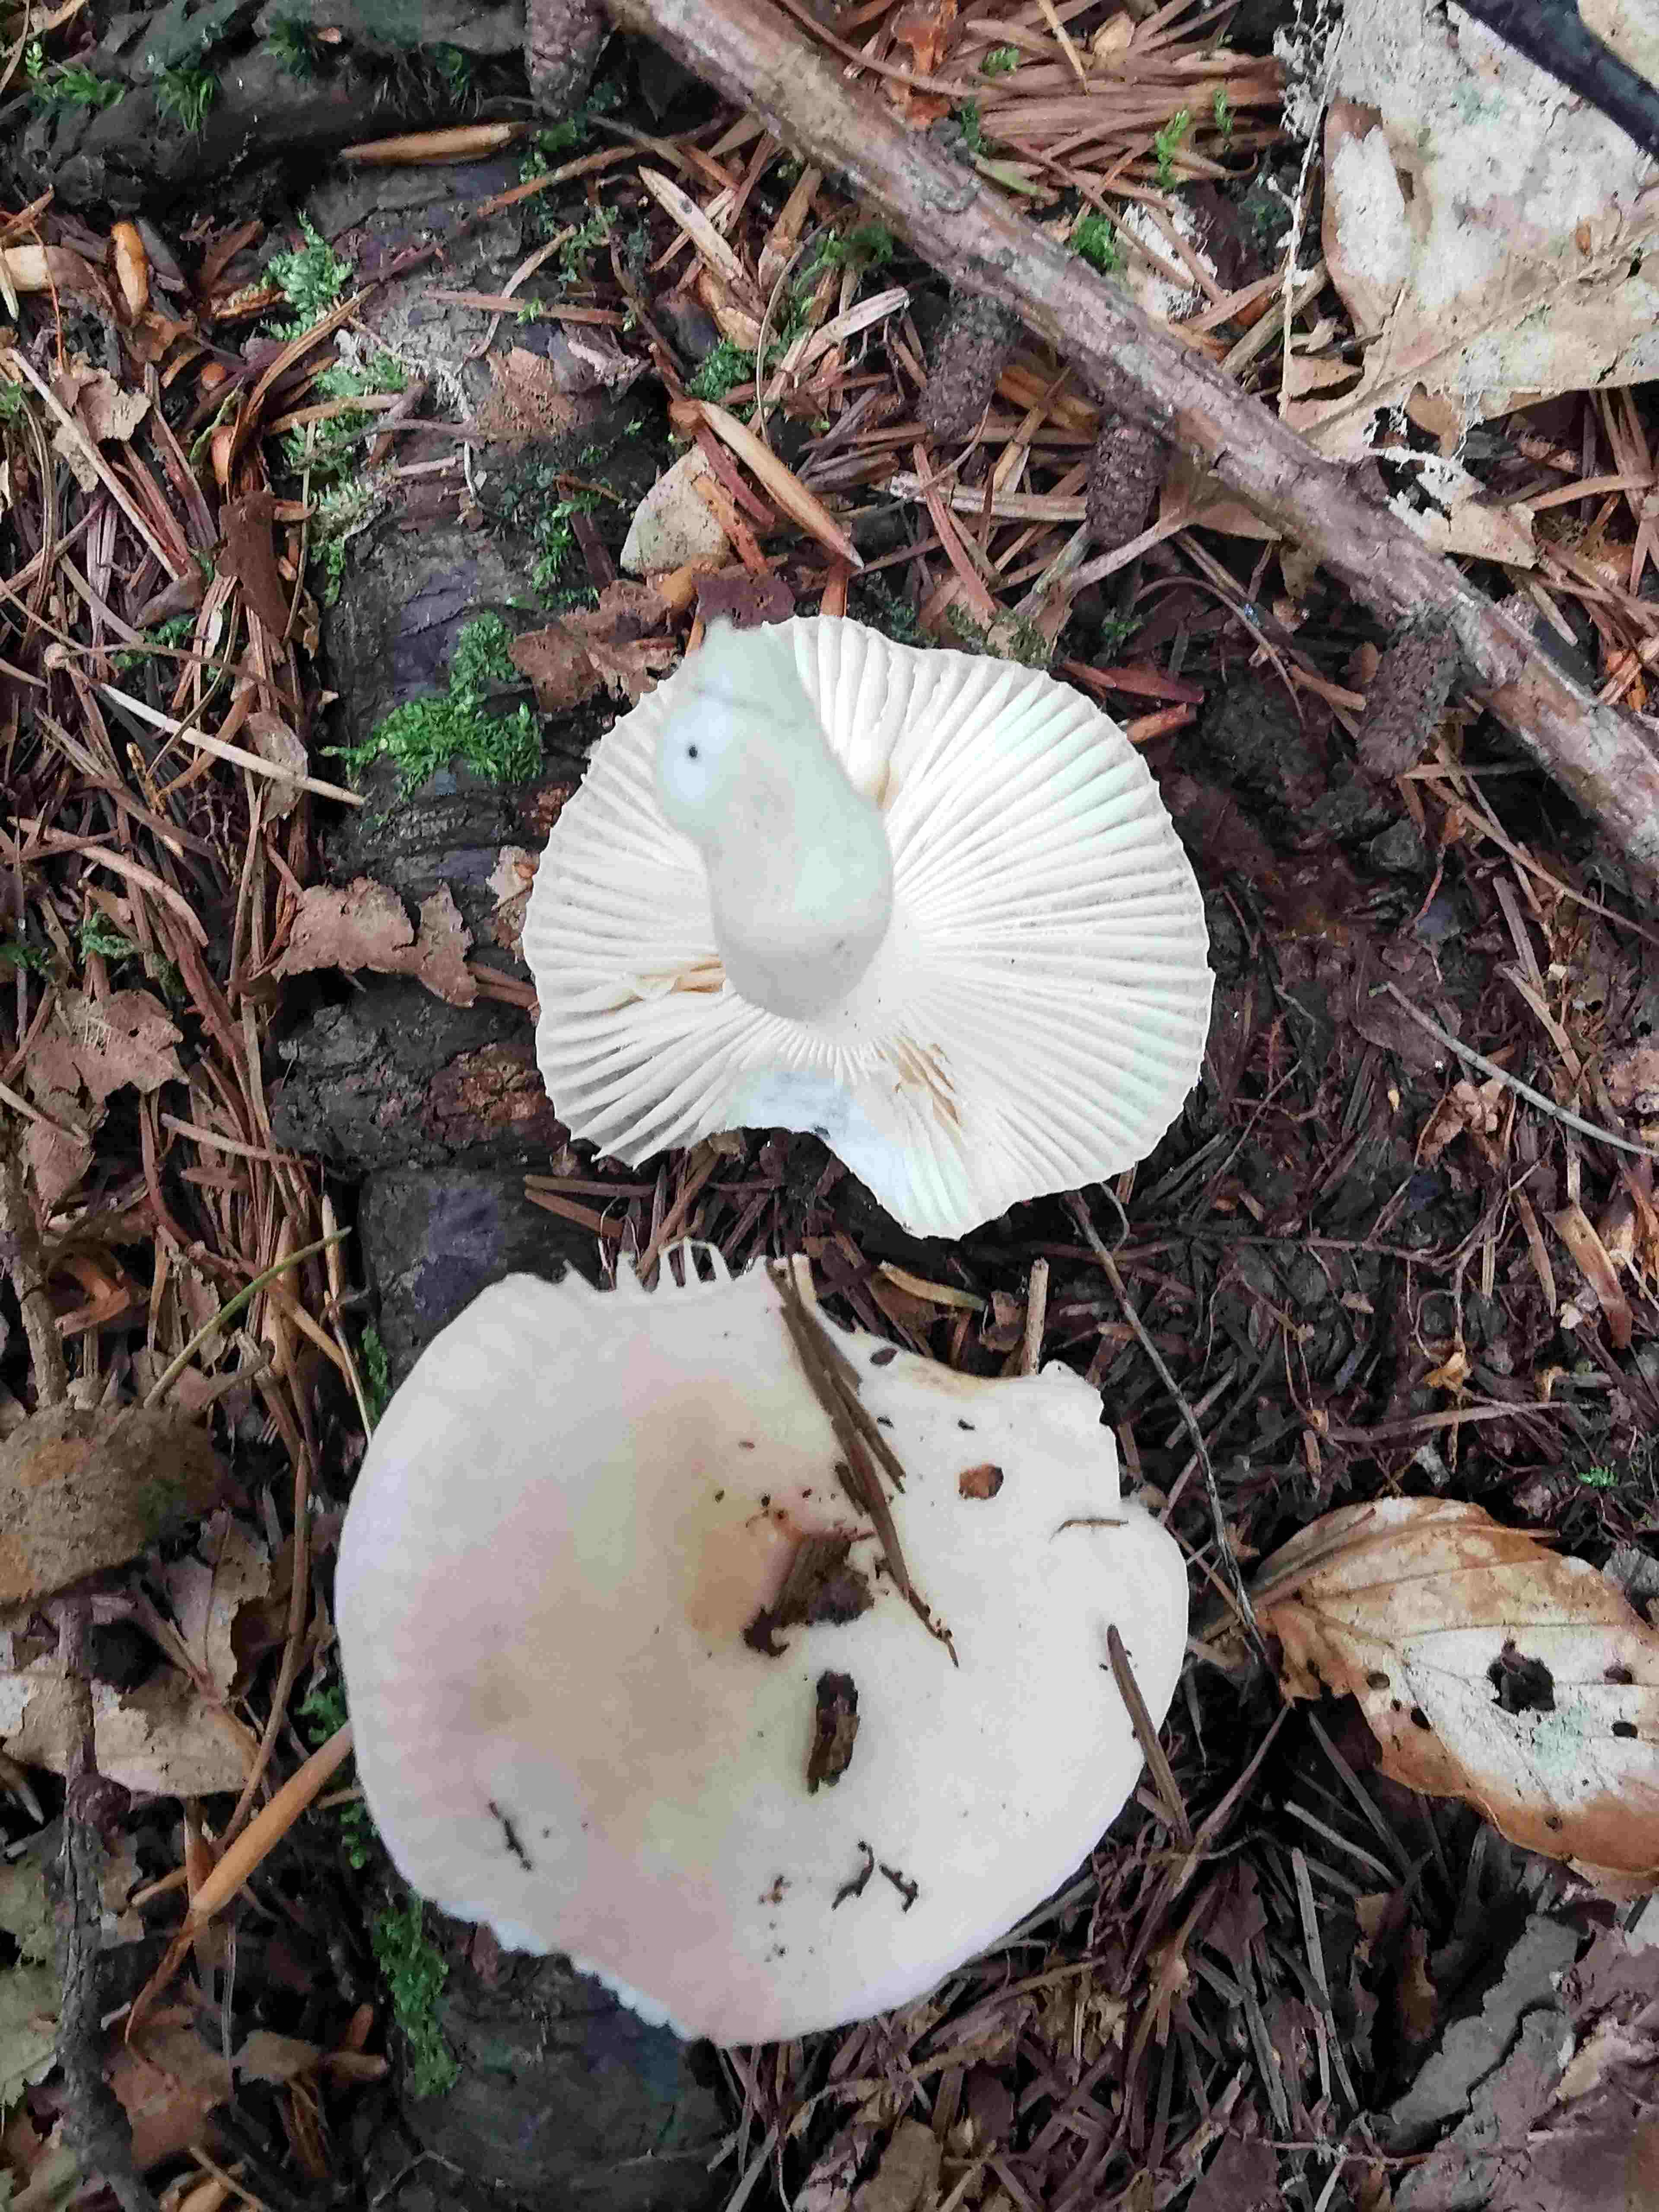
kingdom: Fungi
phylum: Basidiomycota
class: Agaricomycetes
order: Russulales
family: Russulaceae
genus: Russula
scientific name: Russula betularum
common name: bleg gift-skørhat
